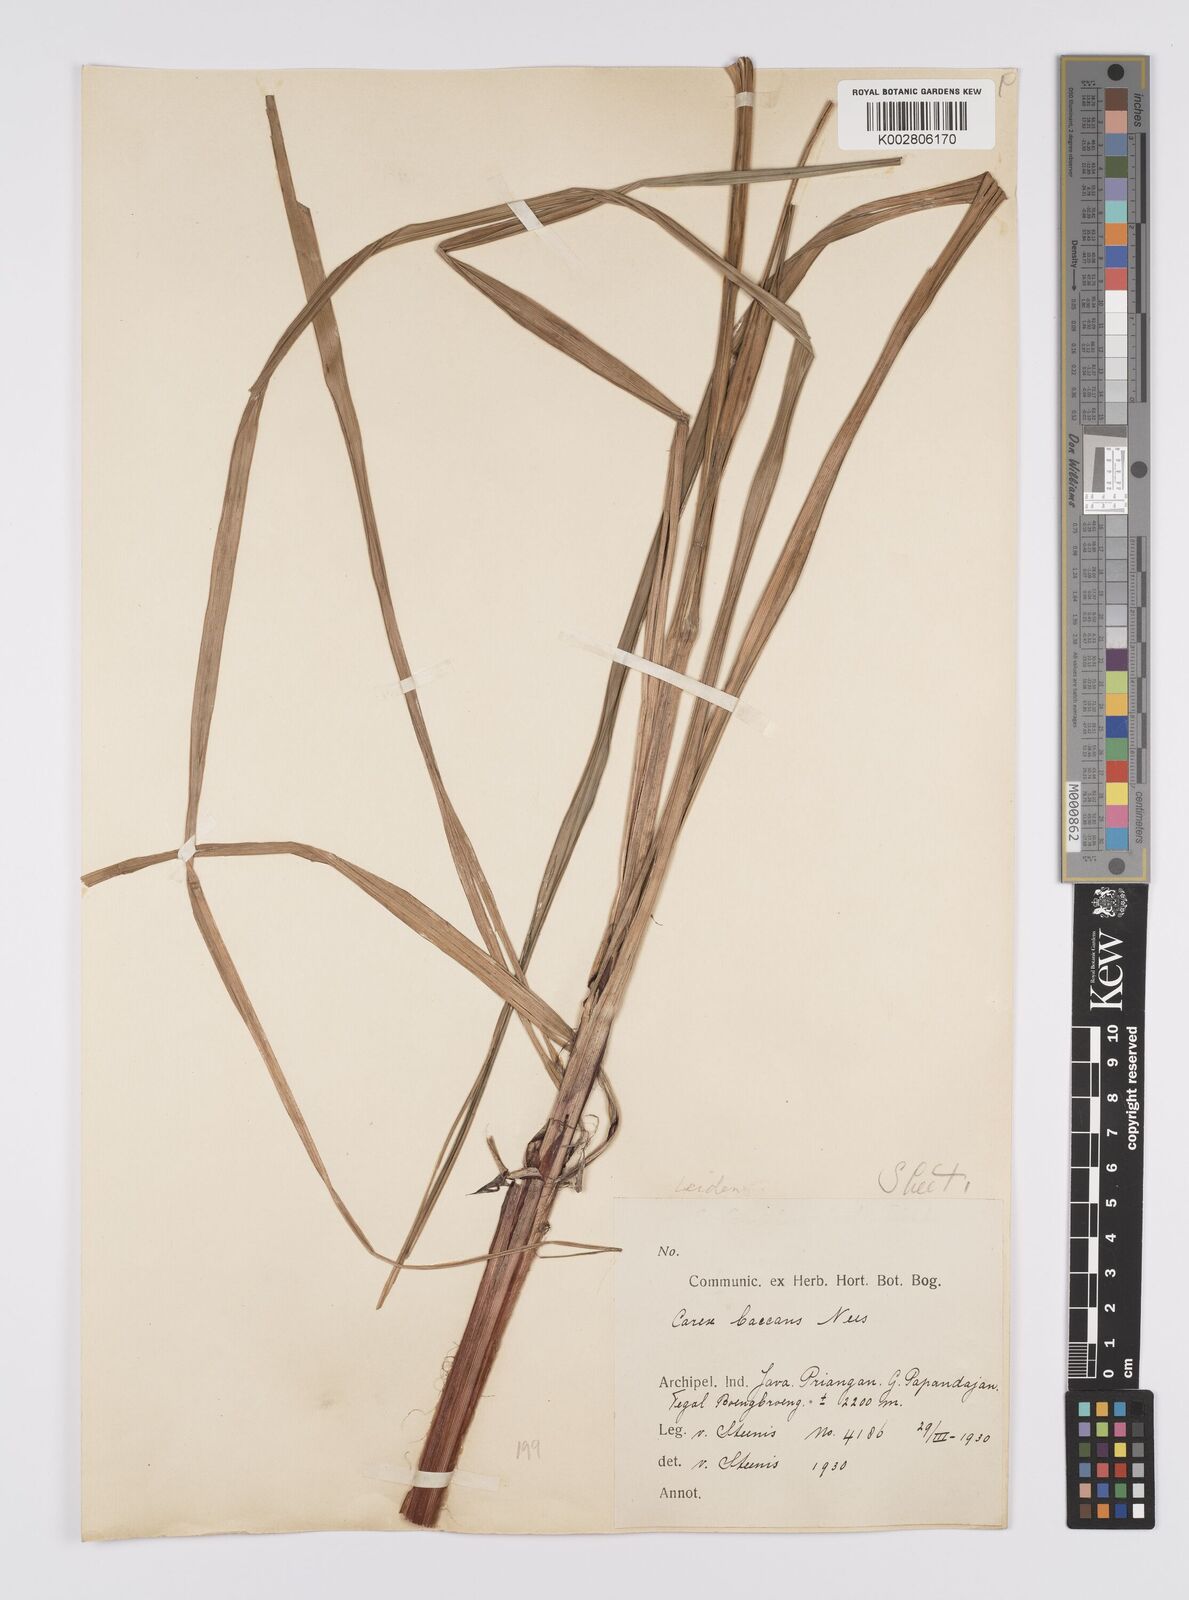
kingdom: Plantae
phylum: Tracheophyta
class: Liliopsida
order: Poales
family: Cyperaceae
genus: Carex
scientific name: Carex baccans
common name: Crimson seeded sedge
